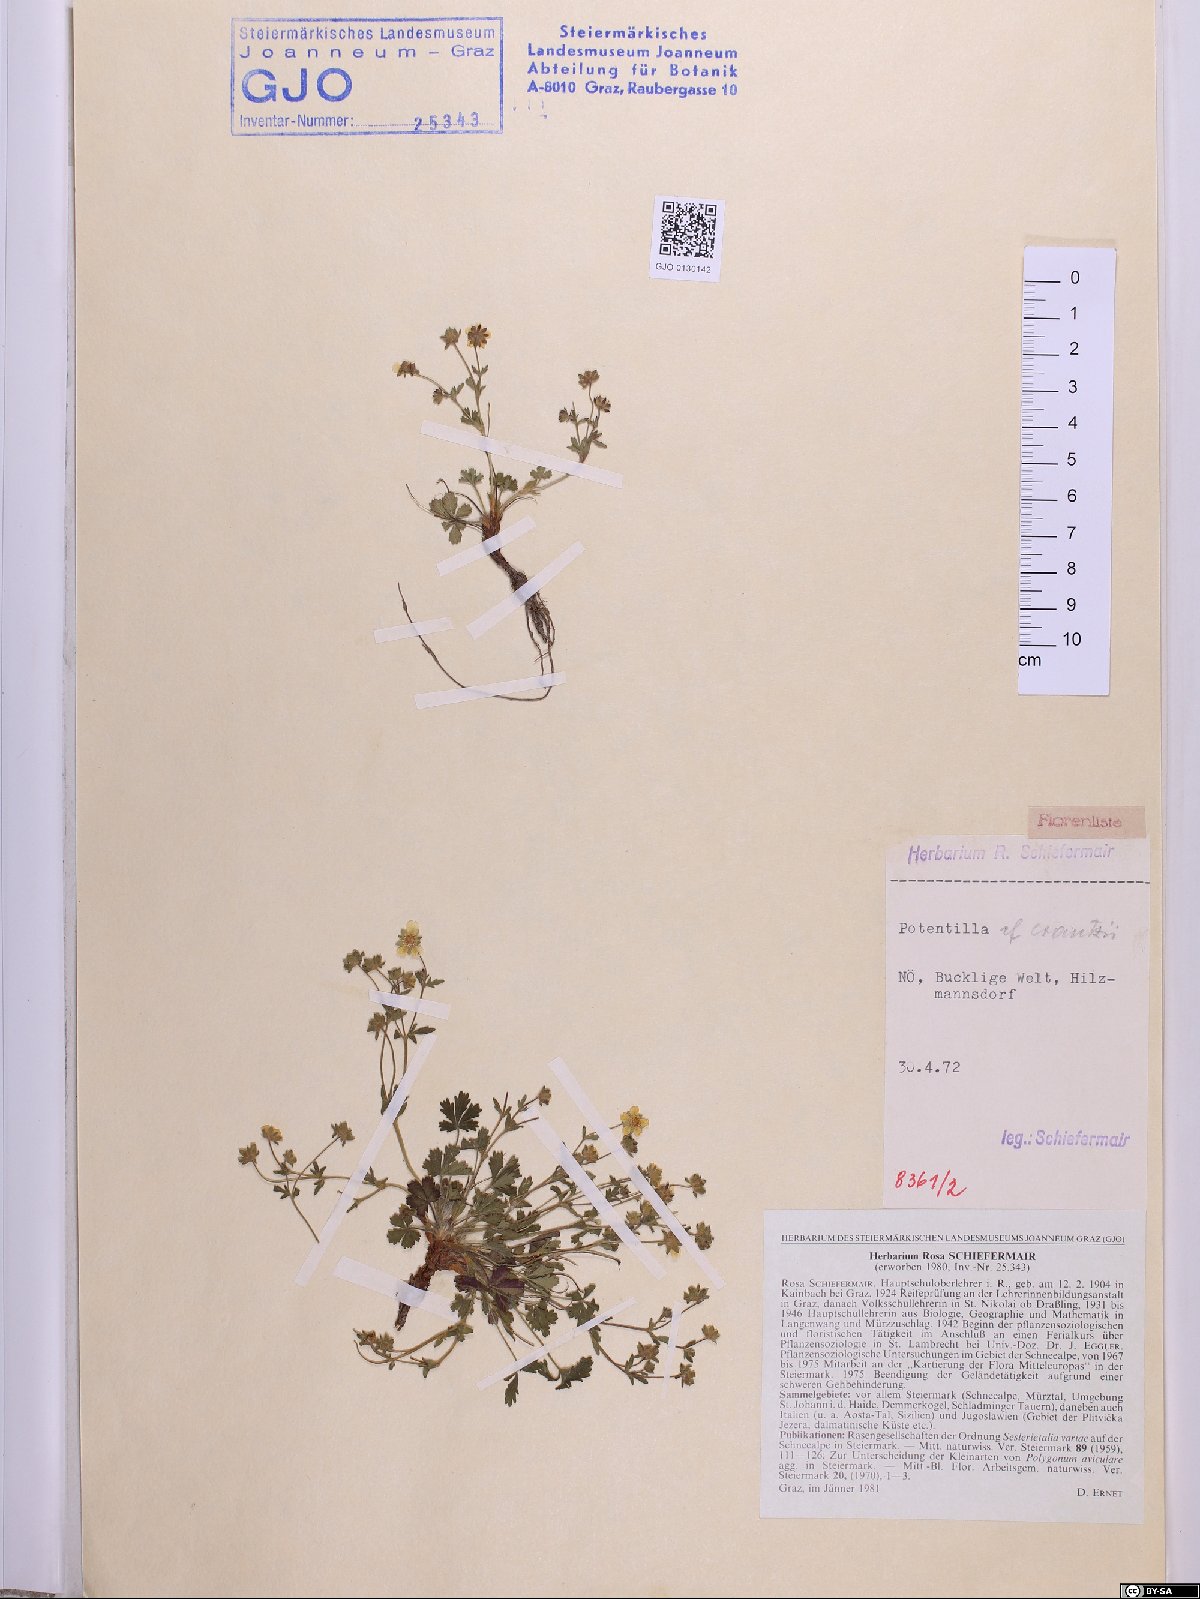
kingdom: Plantae
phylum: Tracheophyta
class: Magnoliopsida
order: Rosales
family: Rosaceae
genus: Potentilla
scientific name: Potentilla verna
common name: Spring cinquefoil
